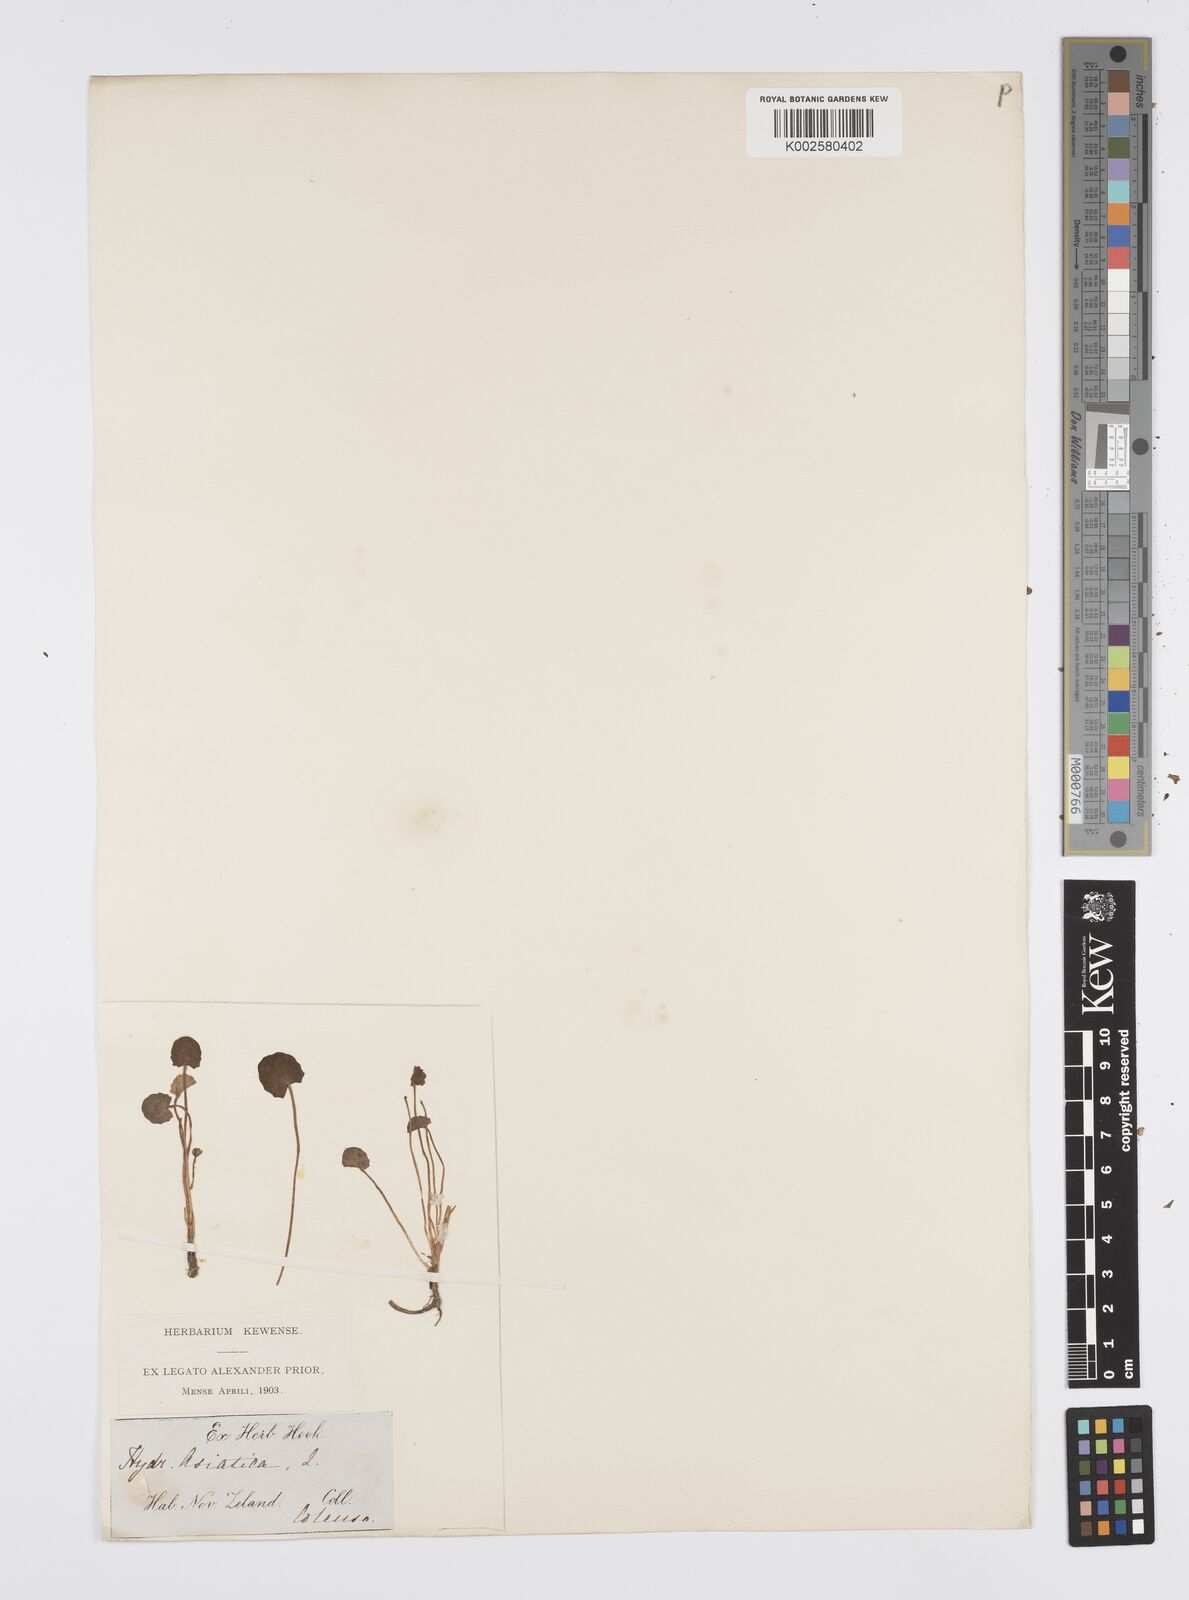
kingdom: Plantae
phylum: Tracheophyta
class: Magnoliopsida
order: Apiales
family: Apiaceae
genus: Centella
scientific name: Centella uniflora
